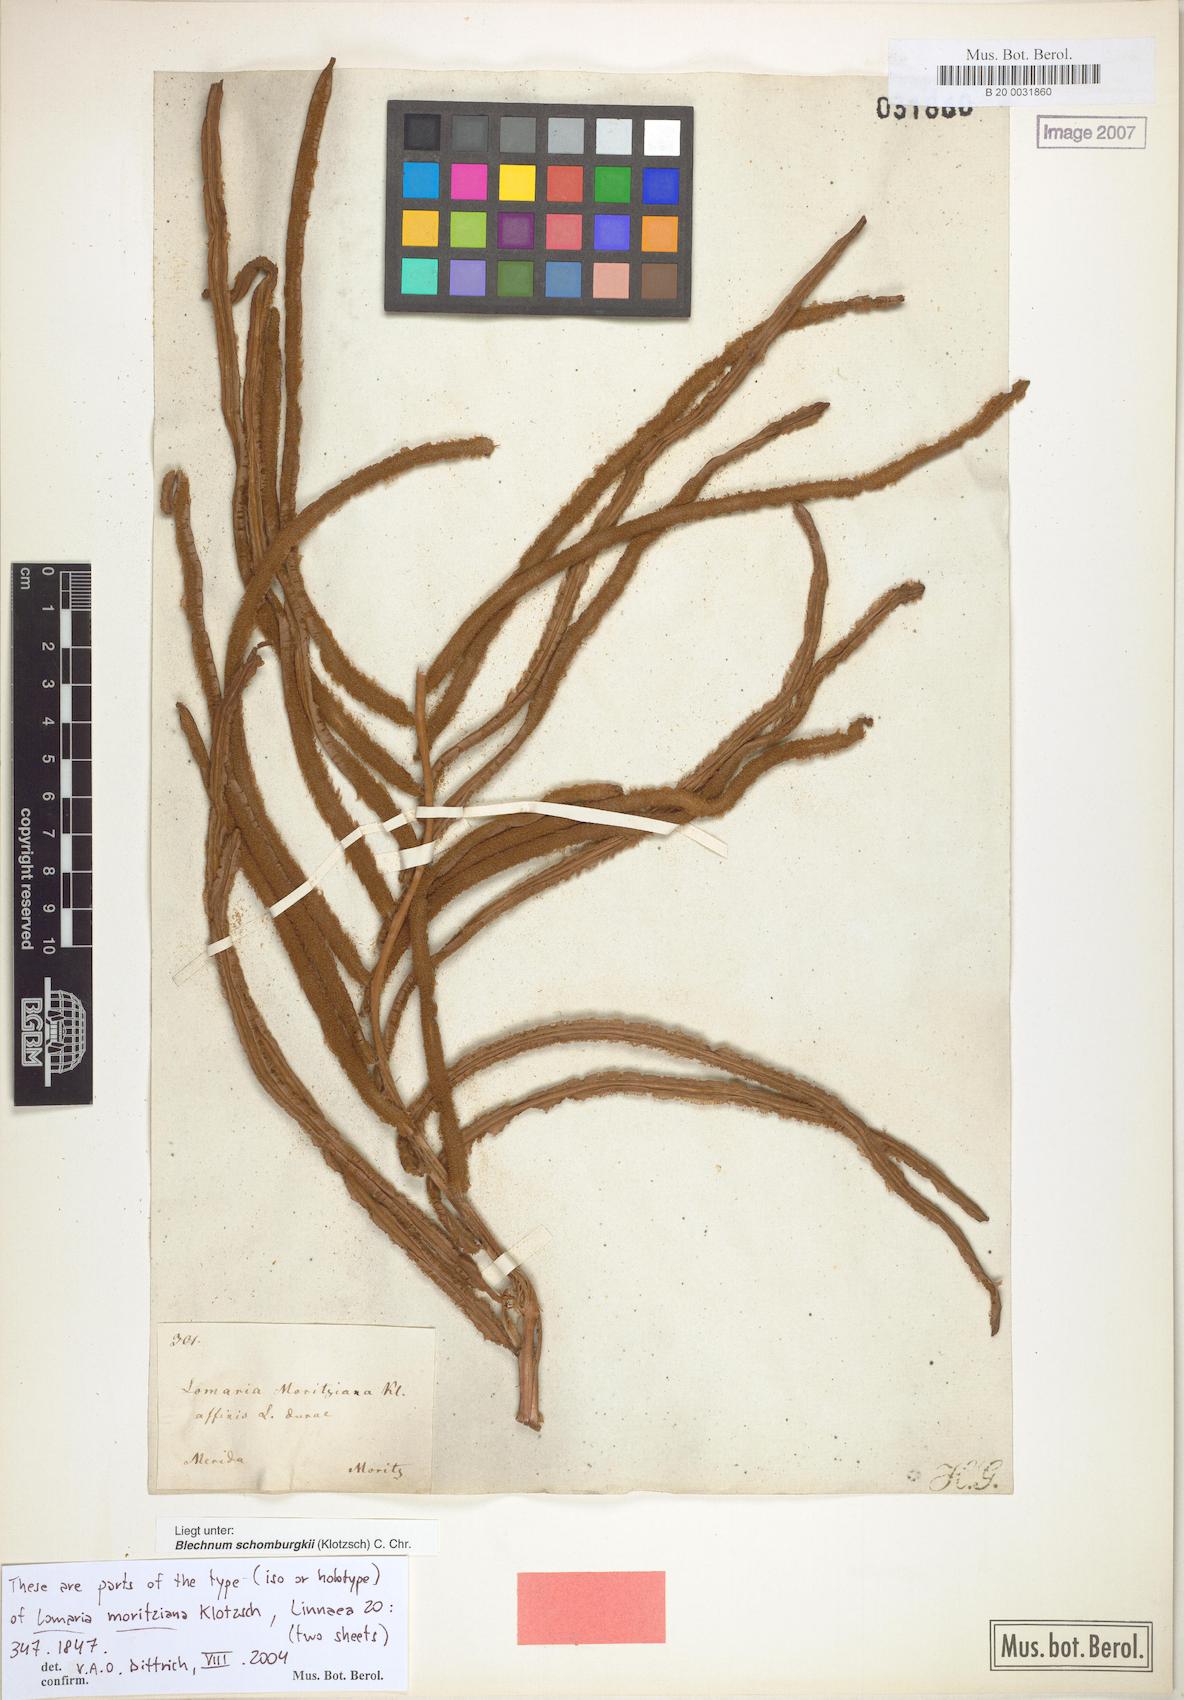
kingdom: Plantae
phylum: Tracheophyta
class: Polypodiopsida
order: Polypodiales
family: Blechnaceae
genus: Lomariocycas
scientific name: Lomariocycas schomburgkii
